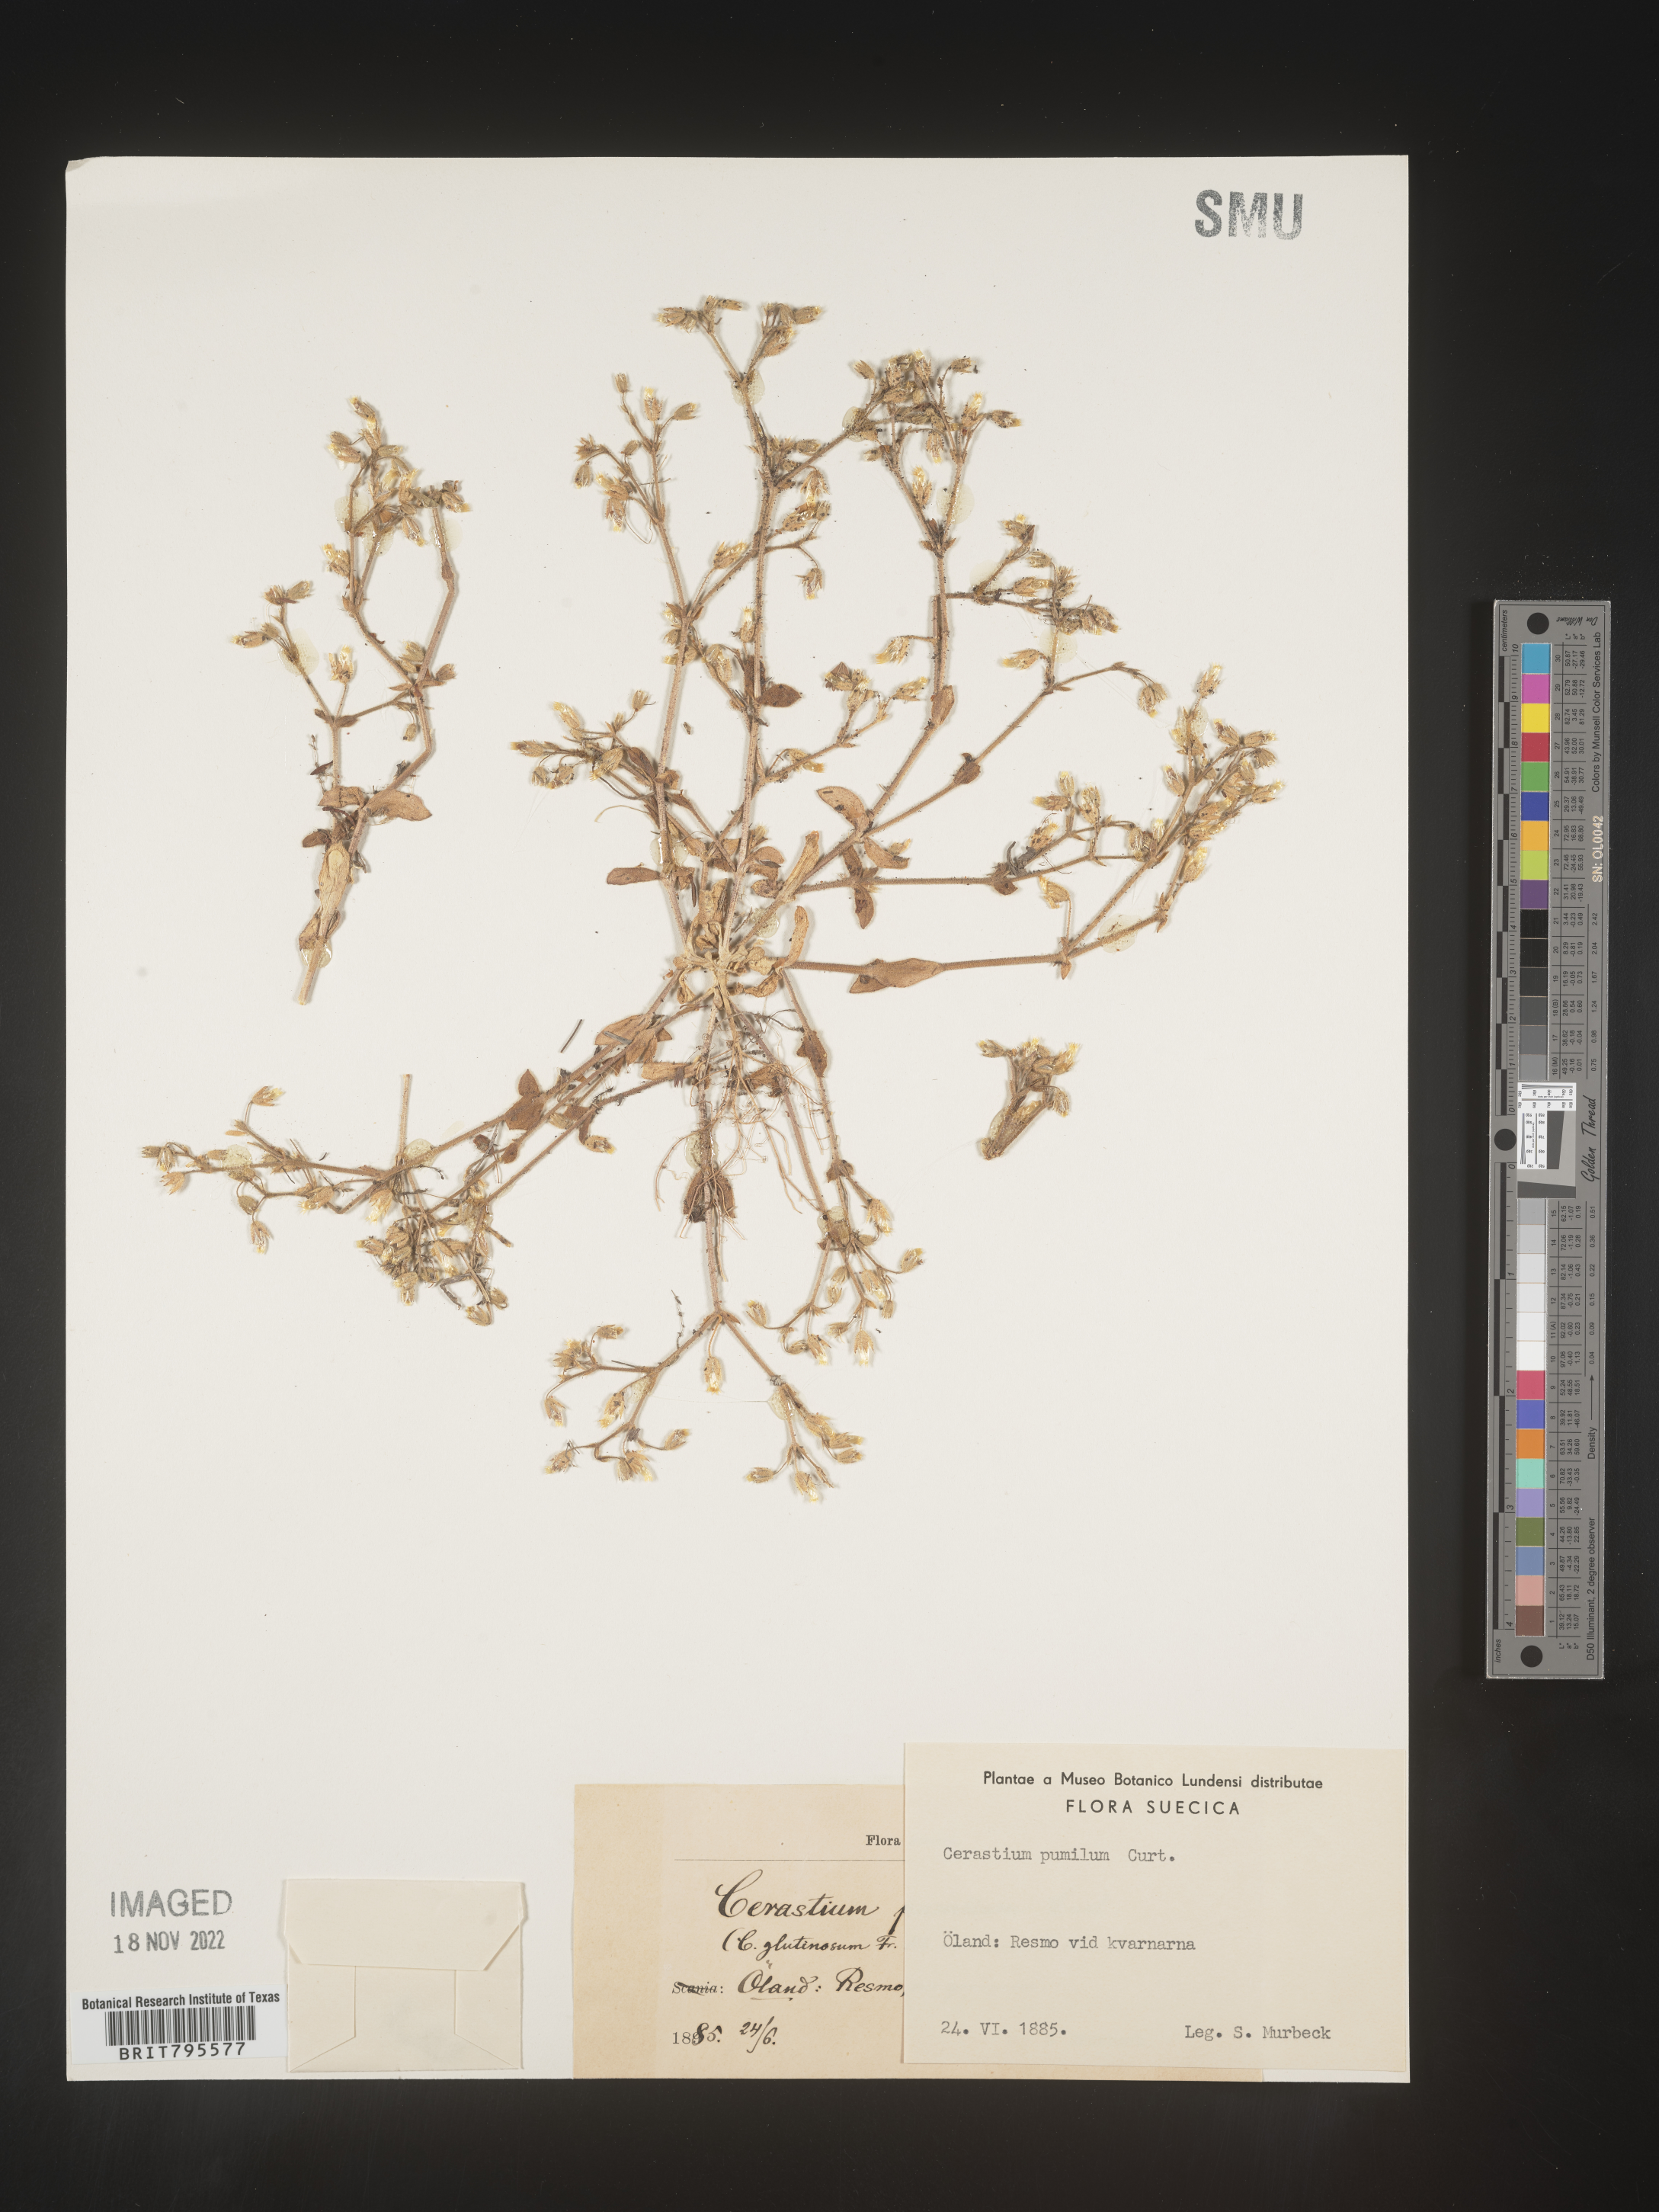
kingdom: Plantae
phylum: Tracheophyta
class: Magnoliopsida
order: Caryophyllales
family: Caryophyllaceae
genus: Cerastium
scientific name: Cerastium
